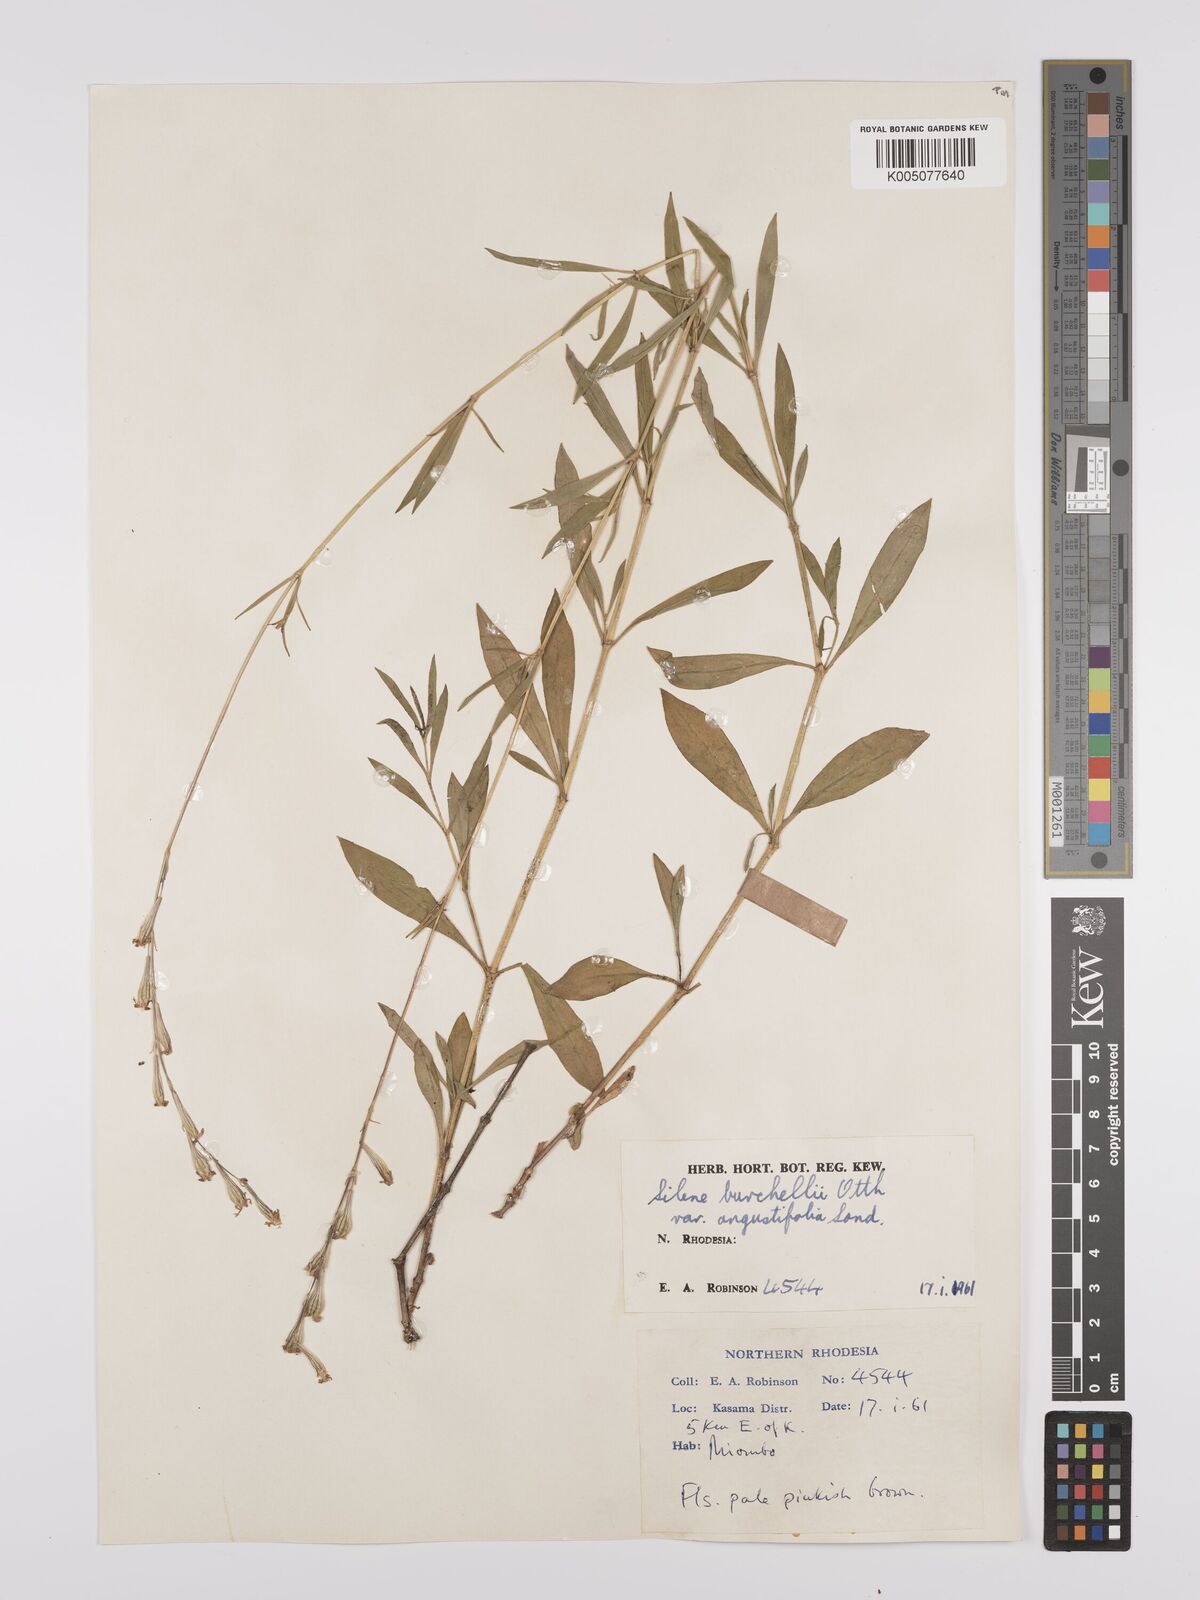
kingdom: Plantae
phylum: Tracheophyta
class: Magnoliopsida
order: Caryophyllales
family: Caryophyllaceae
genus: Silene
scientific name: Silene burchellii
